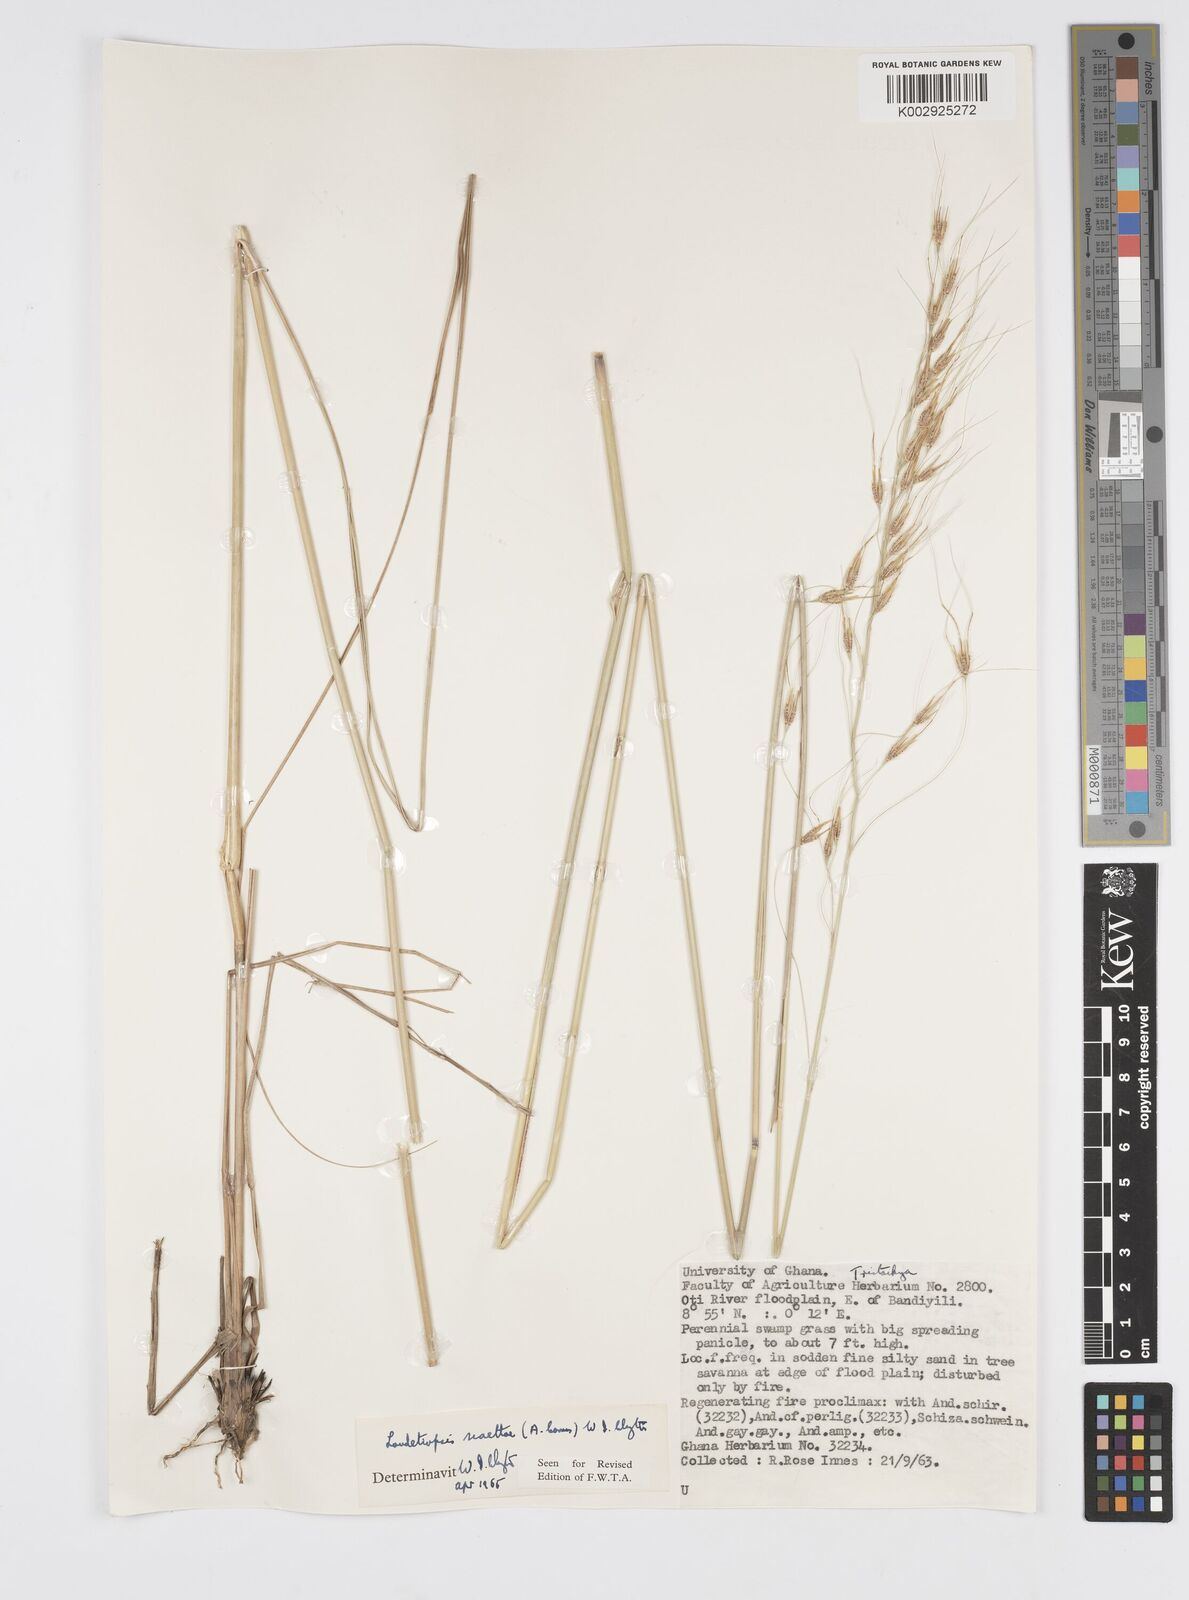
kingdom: Plantae
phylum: Tracheophyta
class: Liliopsida
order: Poales
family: Poaceae
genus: Loudetiopsis
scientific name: Loudetiopsis scaettae
